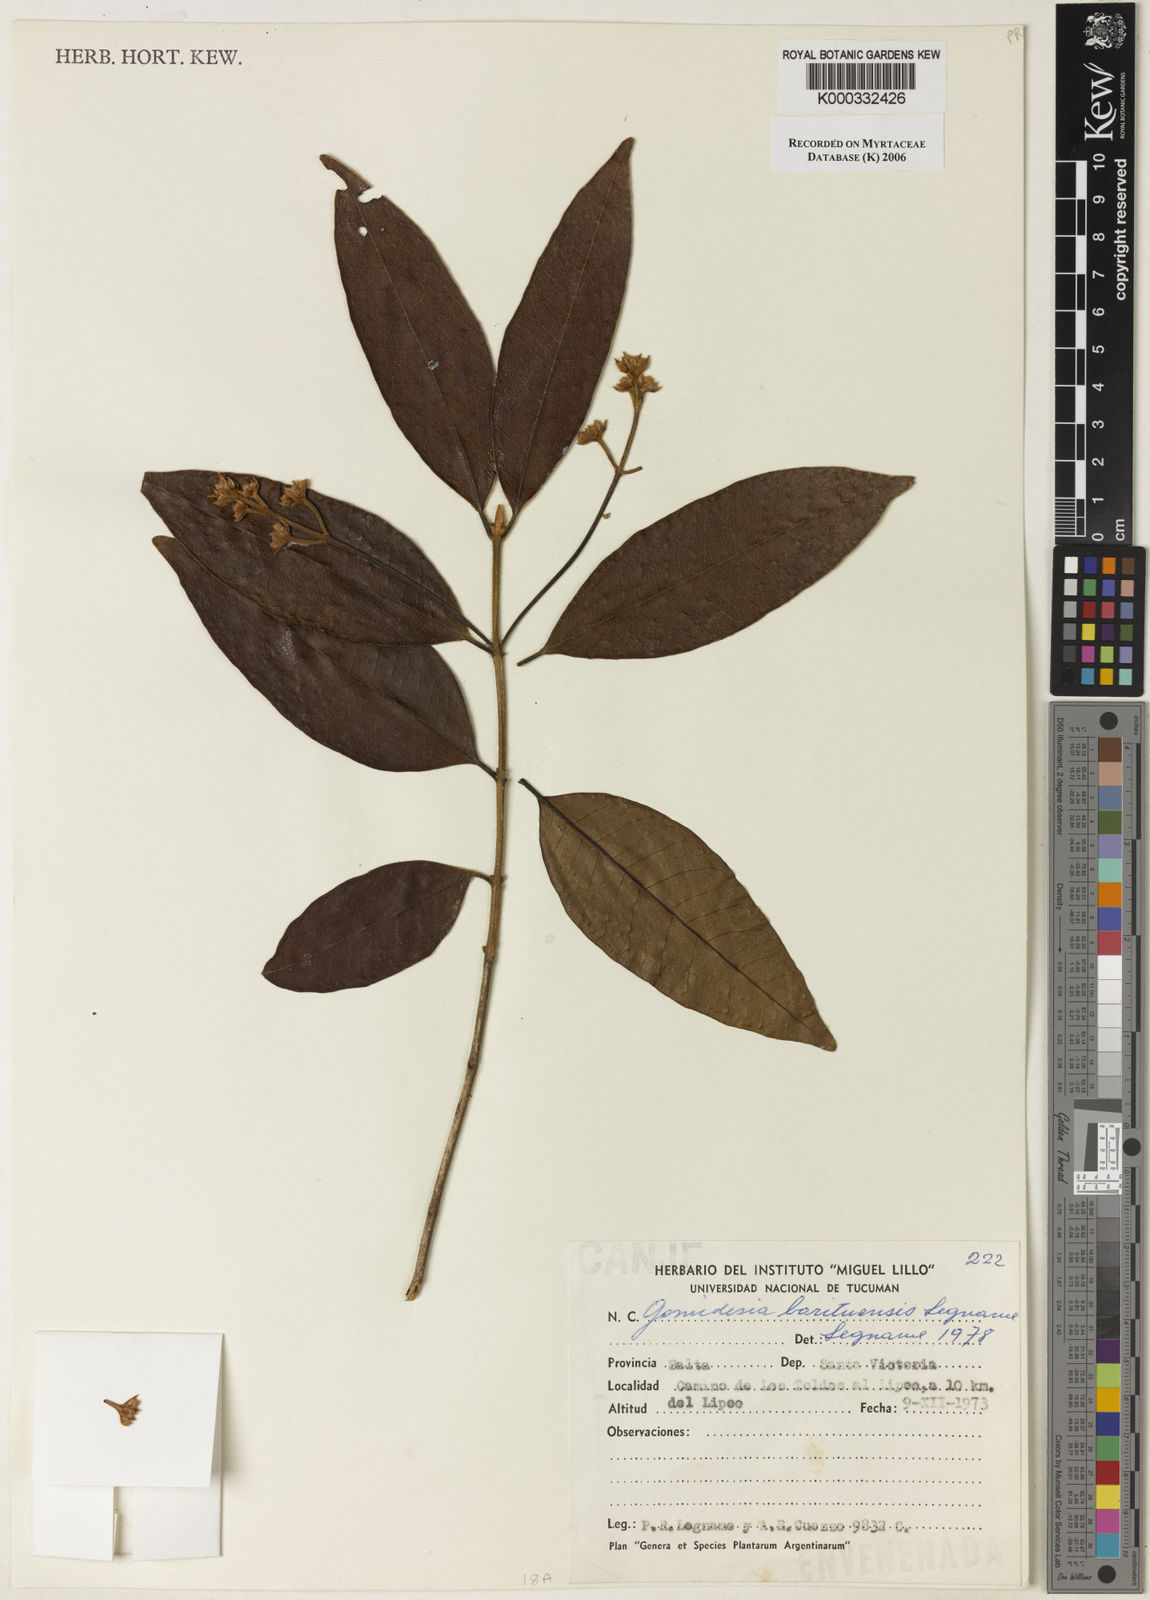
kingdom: Plantae
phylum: Tracheophyta
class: Magnoliopsida
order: Myrtales
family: Myrtaceae
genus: Myrcia
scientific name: Myrcia barituensis
